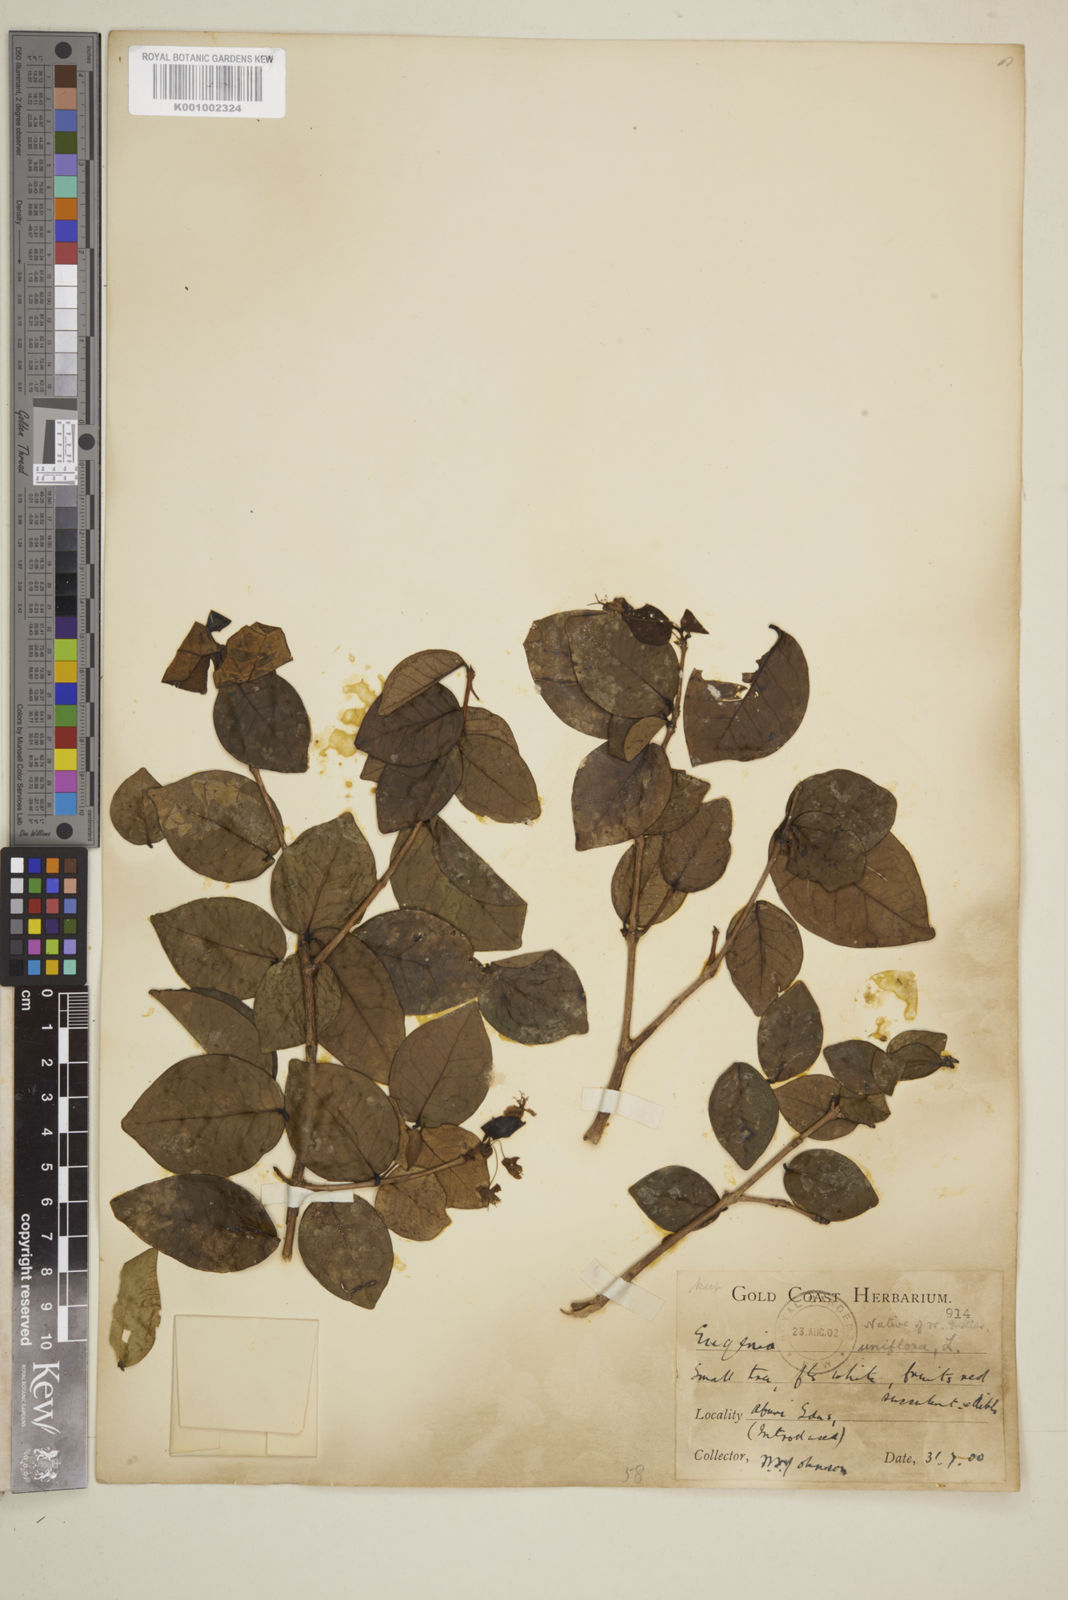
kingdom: Plantae
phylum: Tracheophyta
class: Magnoliopsida
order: Myrtales
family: Myrtaceae
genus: Eugenia
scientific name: Eugenia uniflora
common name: Surinam cherry
